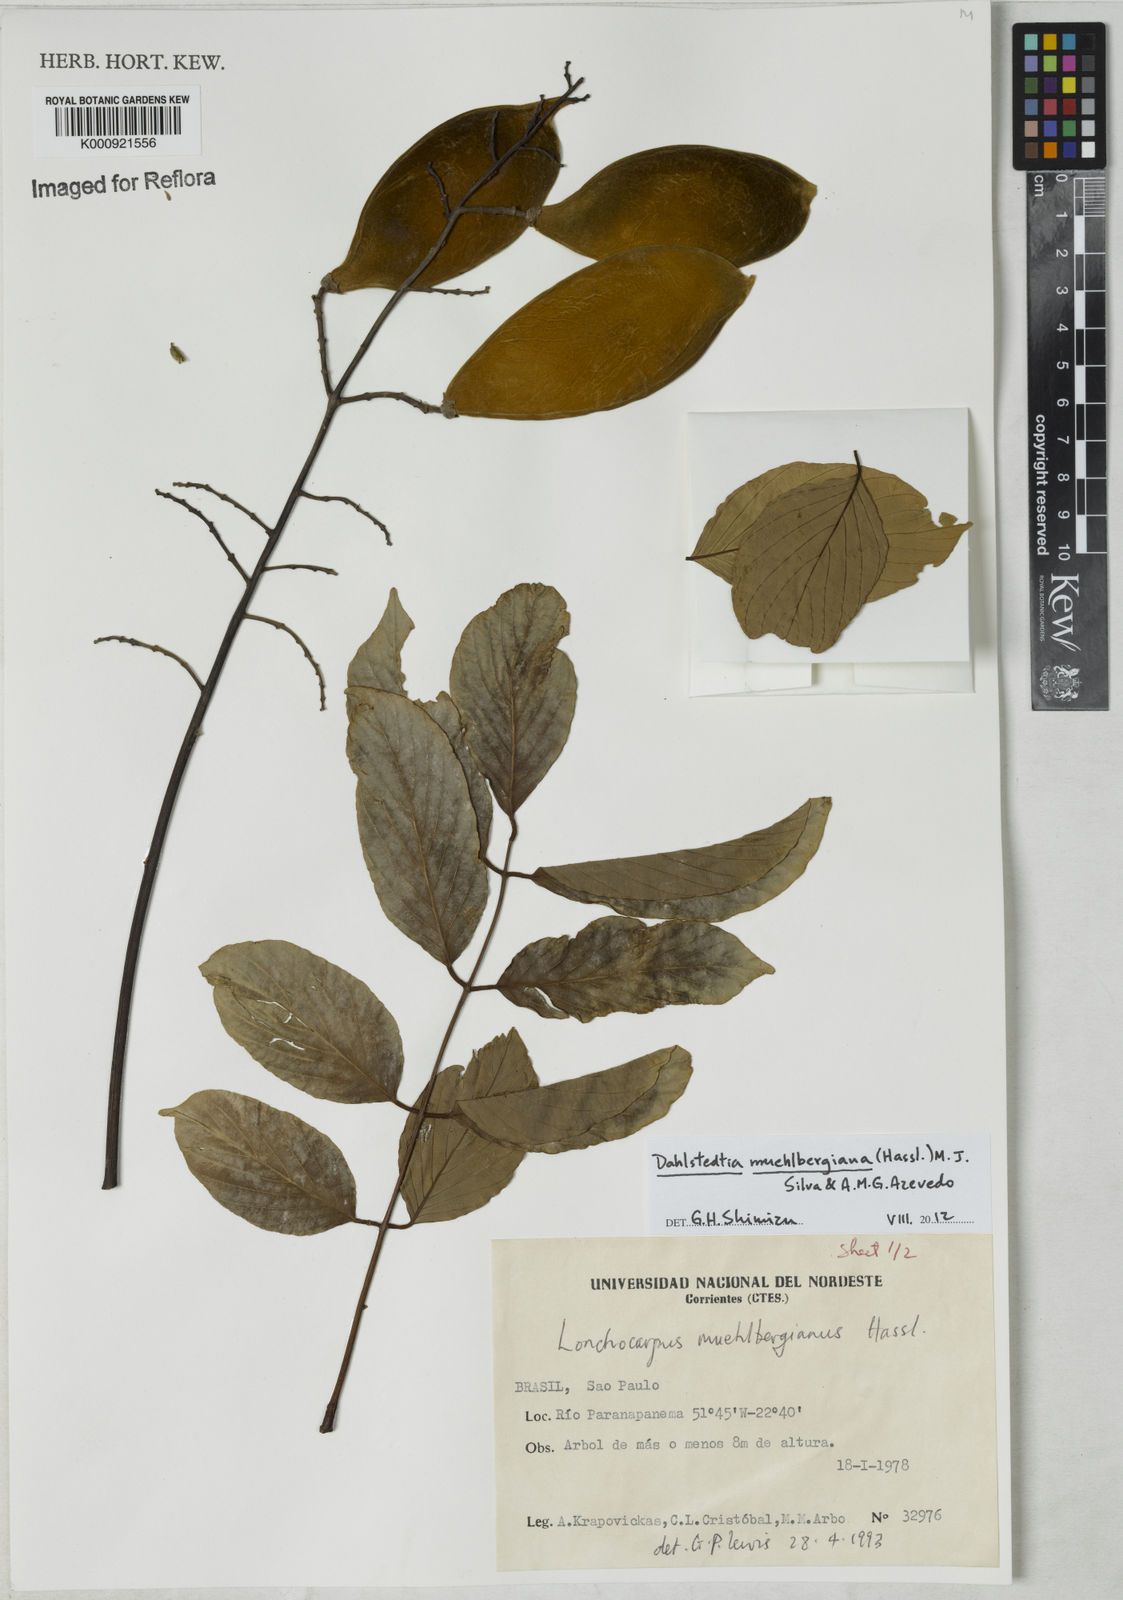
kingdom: Plantae
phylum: Tracheophyta
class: Magnoliopsida
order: Fabales
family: Fabaceae
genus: Dahlstedtia
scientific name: Dahlstedtia muehlbergiana
